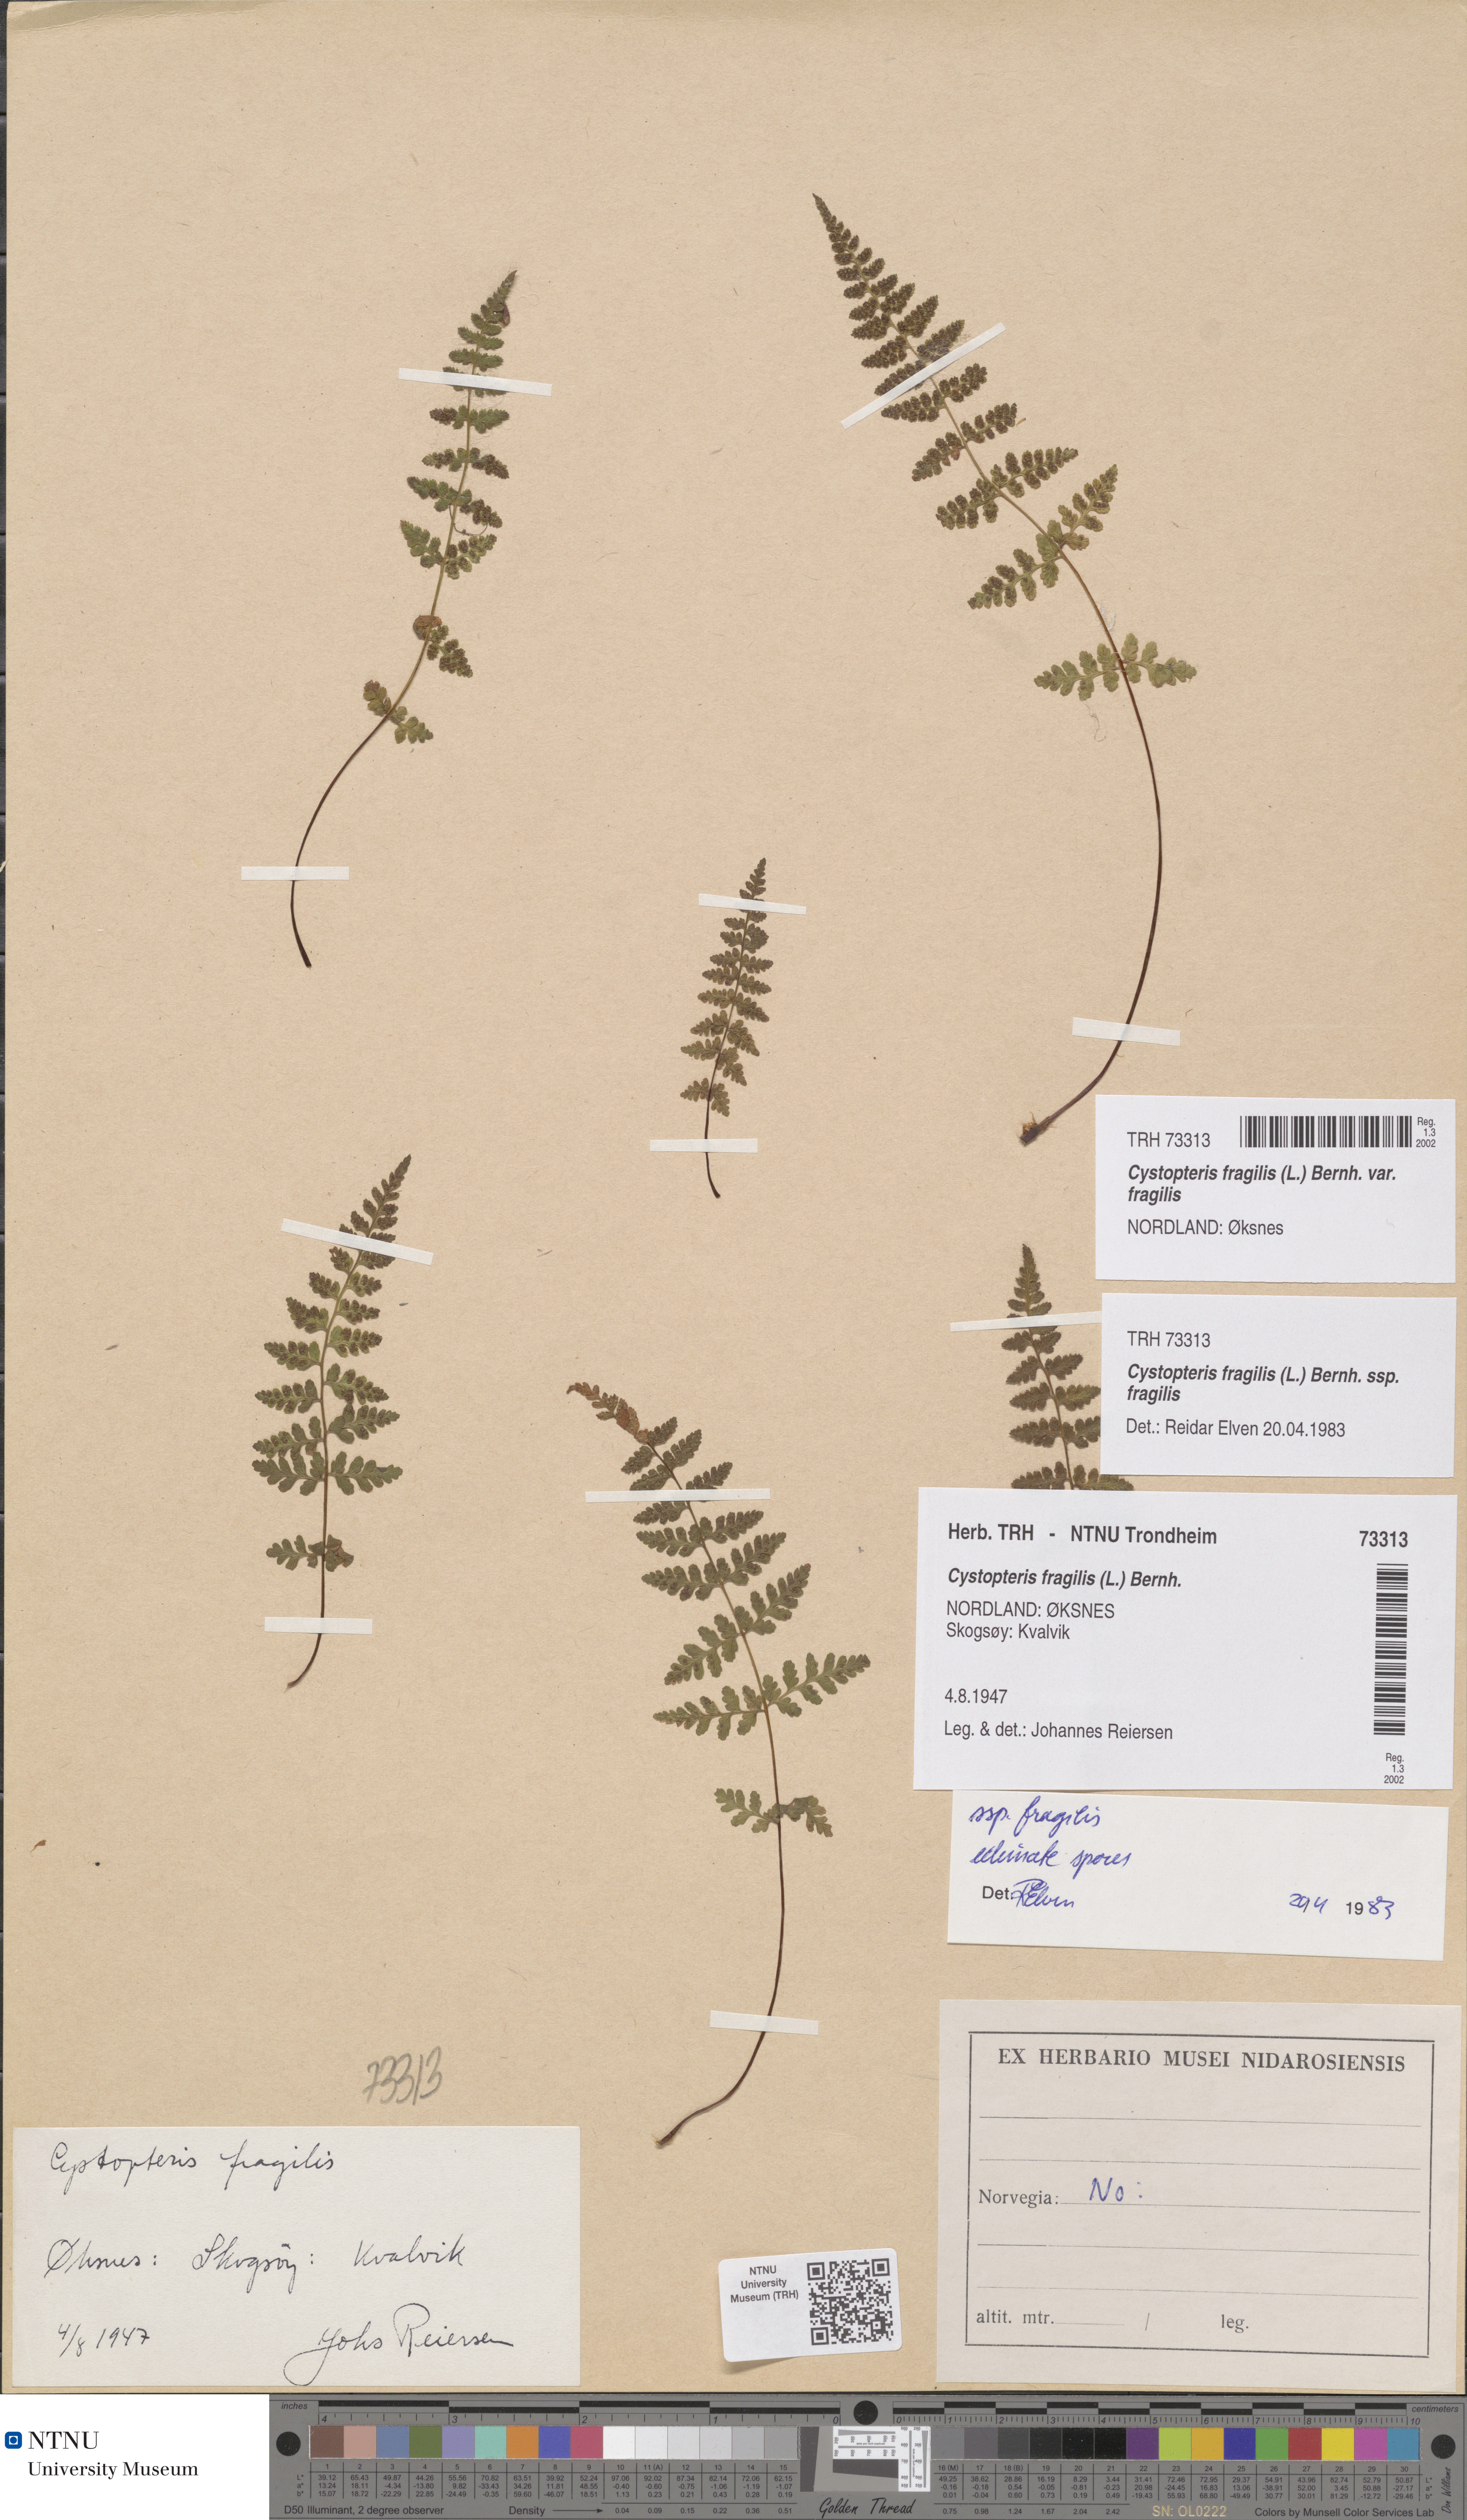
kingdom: Plantae
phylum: Tracheophyta
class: Polypodiopsida
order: Polypodiales
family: Cystopteridaceae
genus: Cystopteris
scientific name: Cystopteris fragilis
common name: Brittle bladder fern
